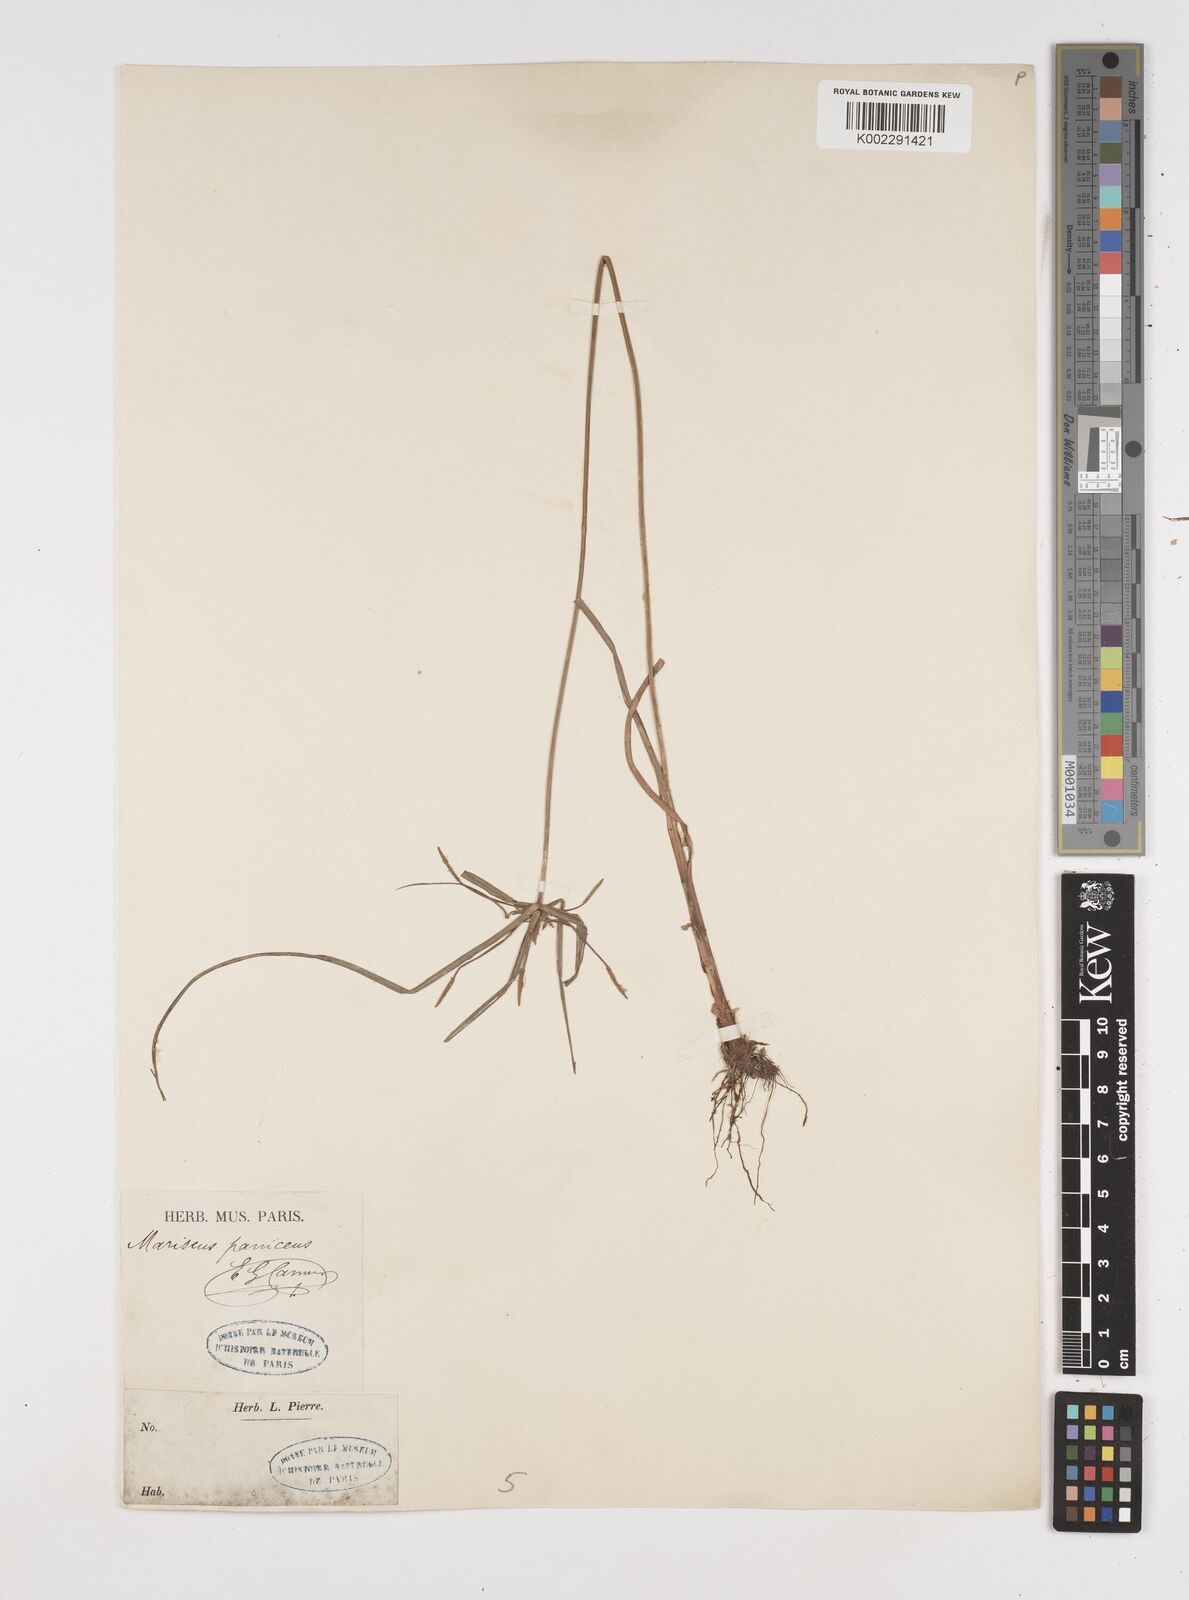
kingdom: Plantae
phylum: Tracheophyta
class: Liliopsida
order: Poales
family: Cyperaceae
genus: Cyperus
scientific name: Cyperus cyperoides
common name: Pacific island flat sedge
